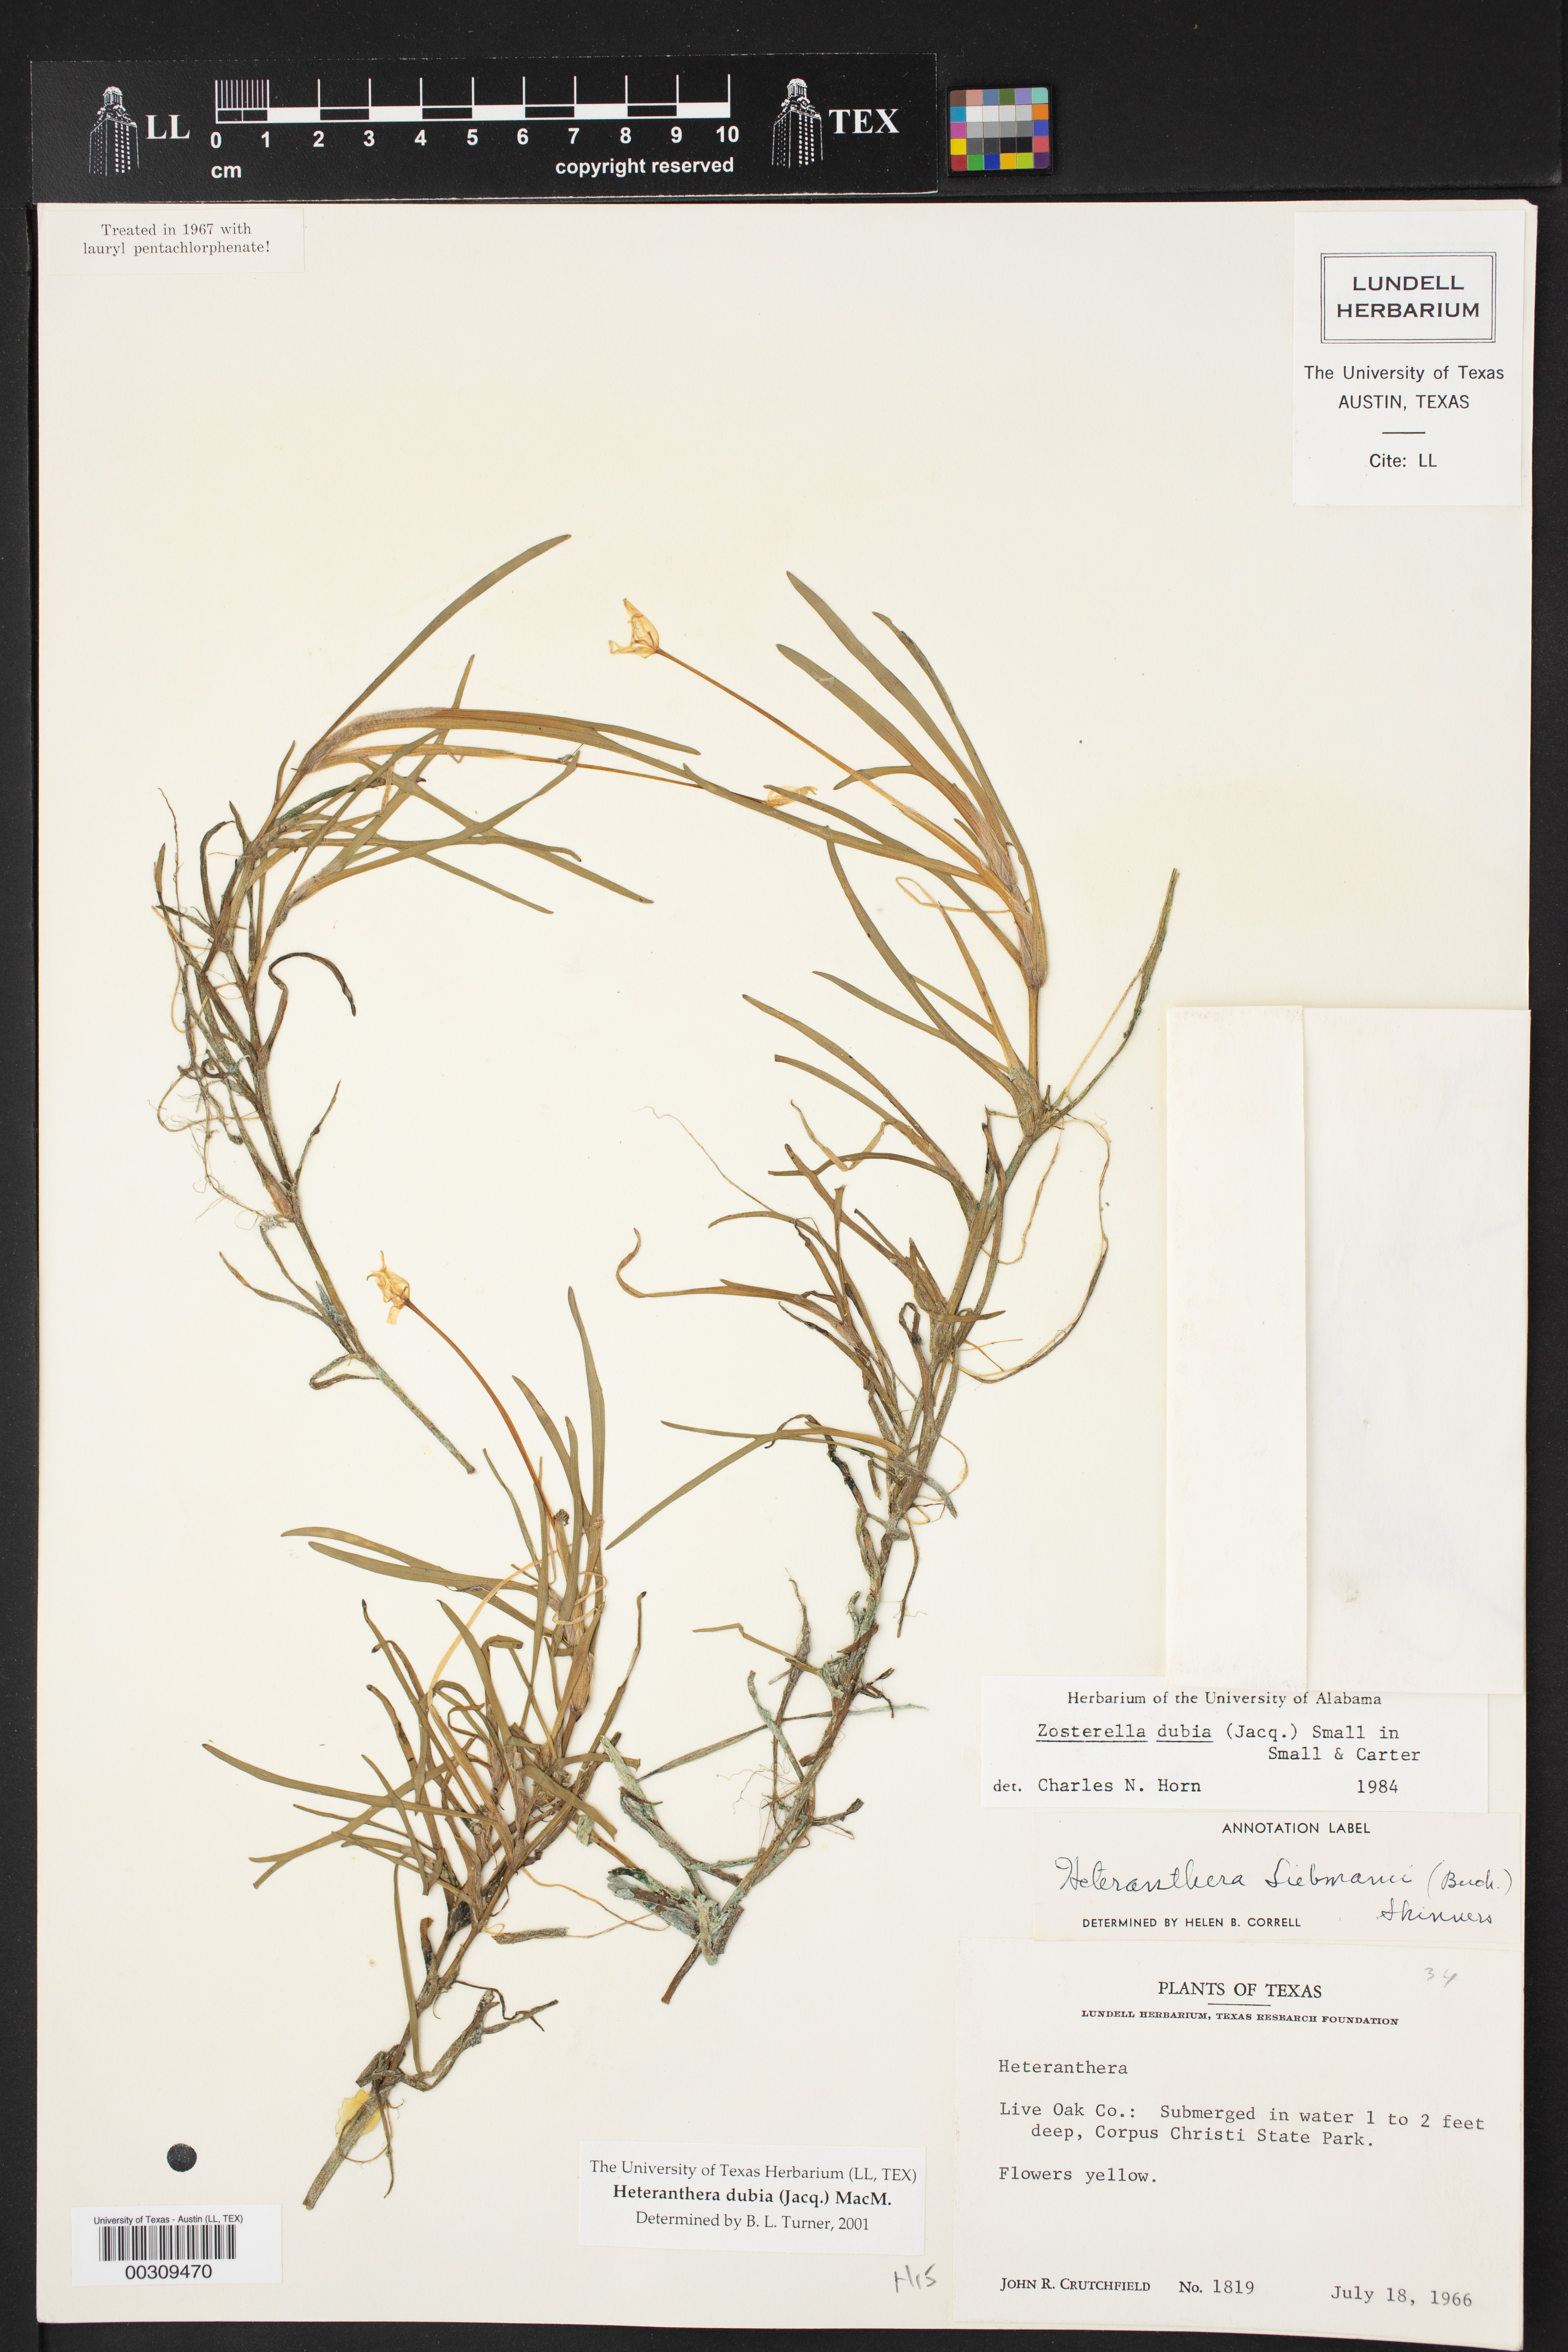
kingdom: Plantae
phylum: Tracheophyta
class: Liliopsida
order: Commelinales
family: Pontederiaceae
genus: Heteranthera
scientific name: Heteranthera dubia
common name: Grass-leaved mud plantain
